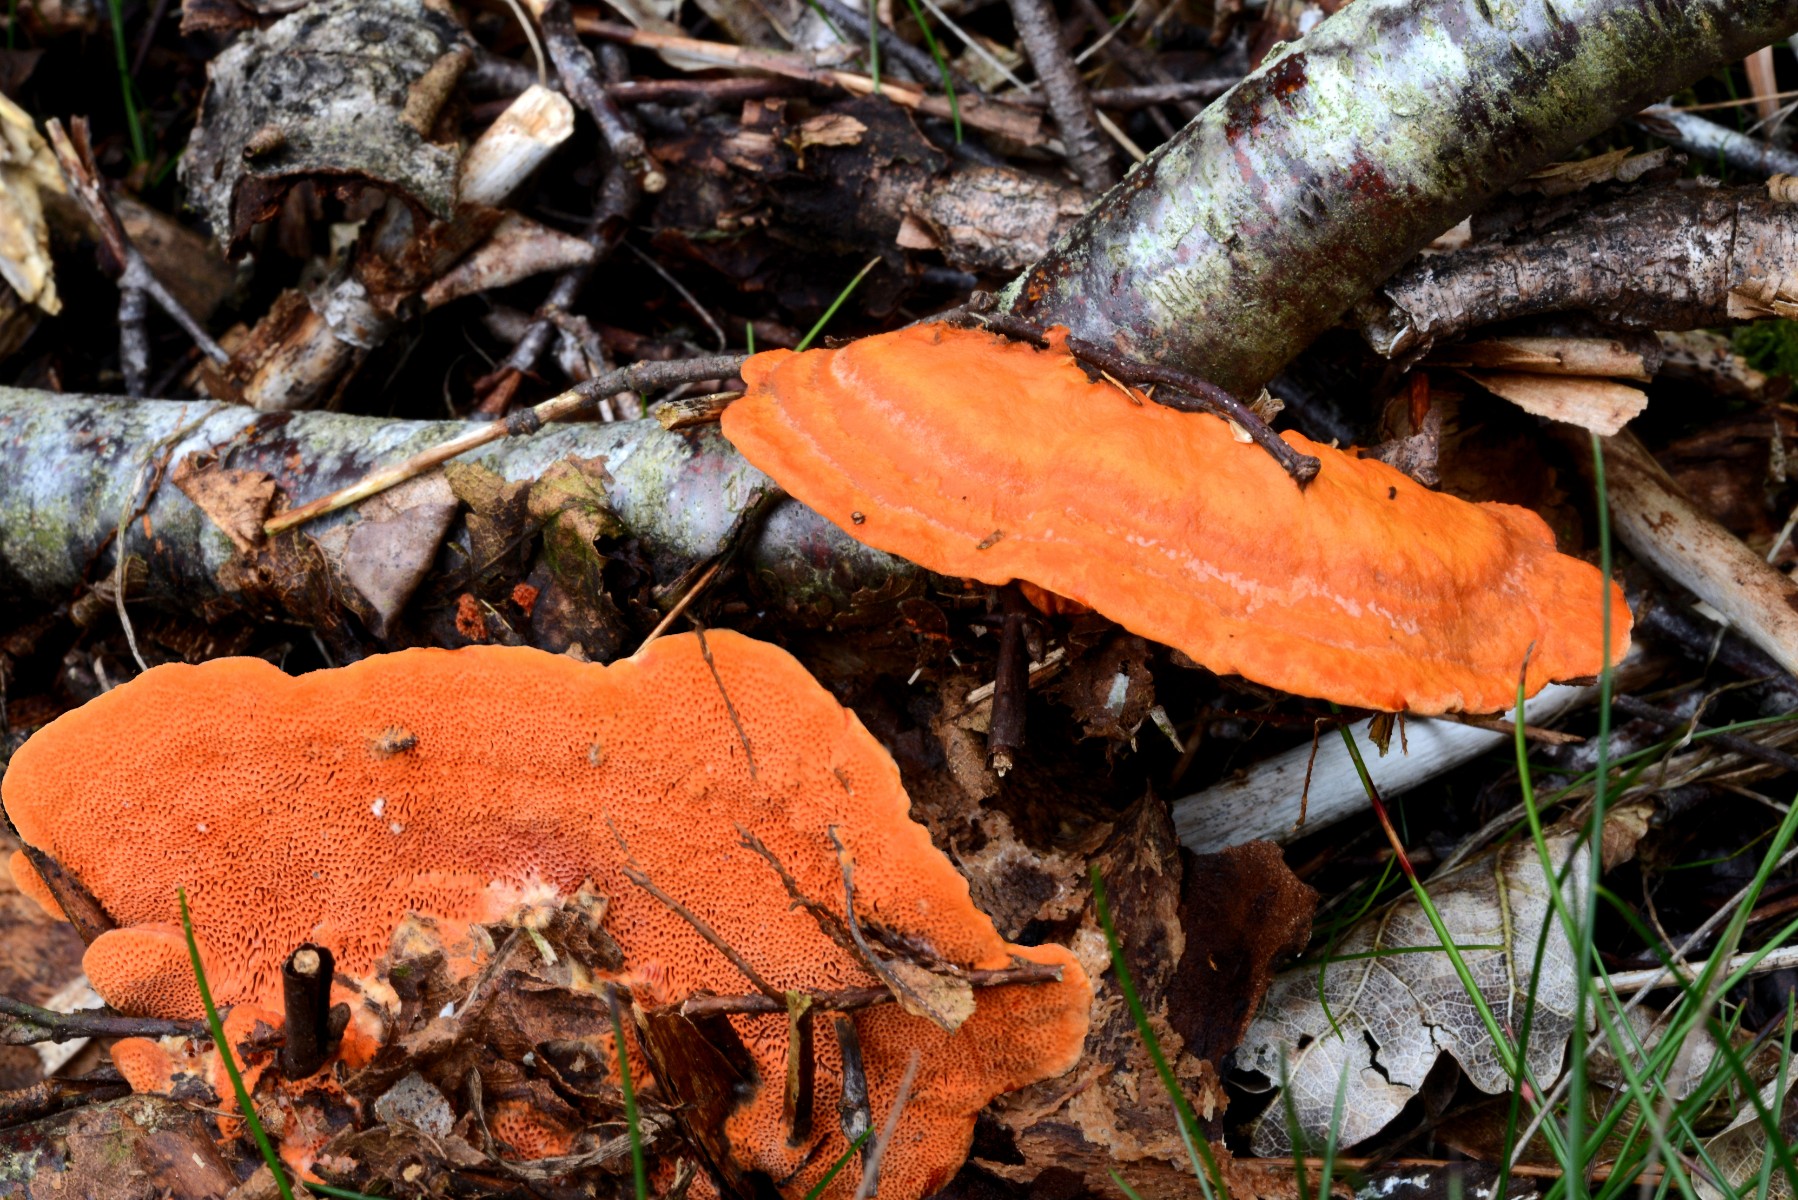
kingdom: Fungi
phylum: Basidiomycota
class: Agaricomycetes
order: Polyporales
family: Polyporaceae
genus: Trametes
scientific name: Trametes cinnabarina
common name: cinnoberporesvamp
